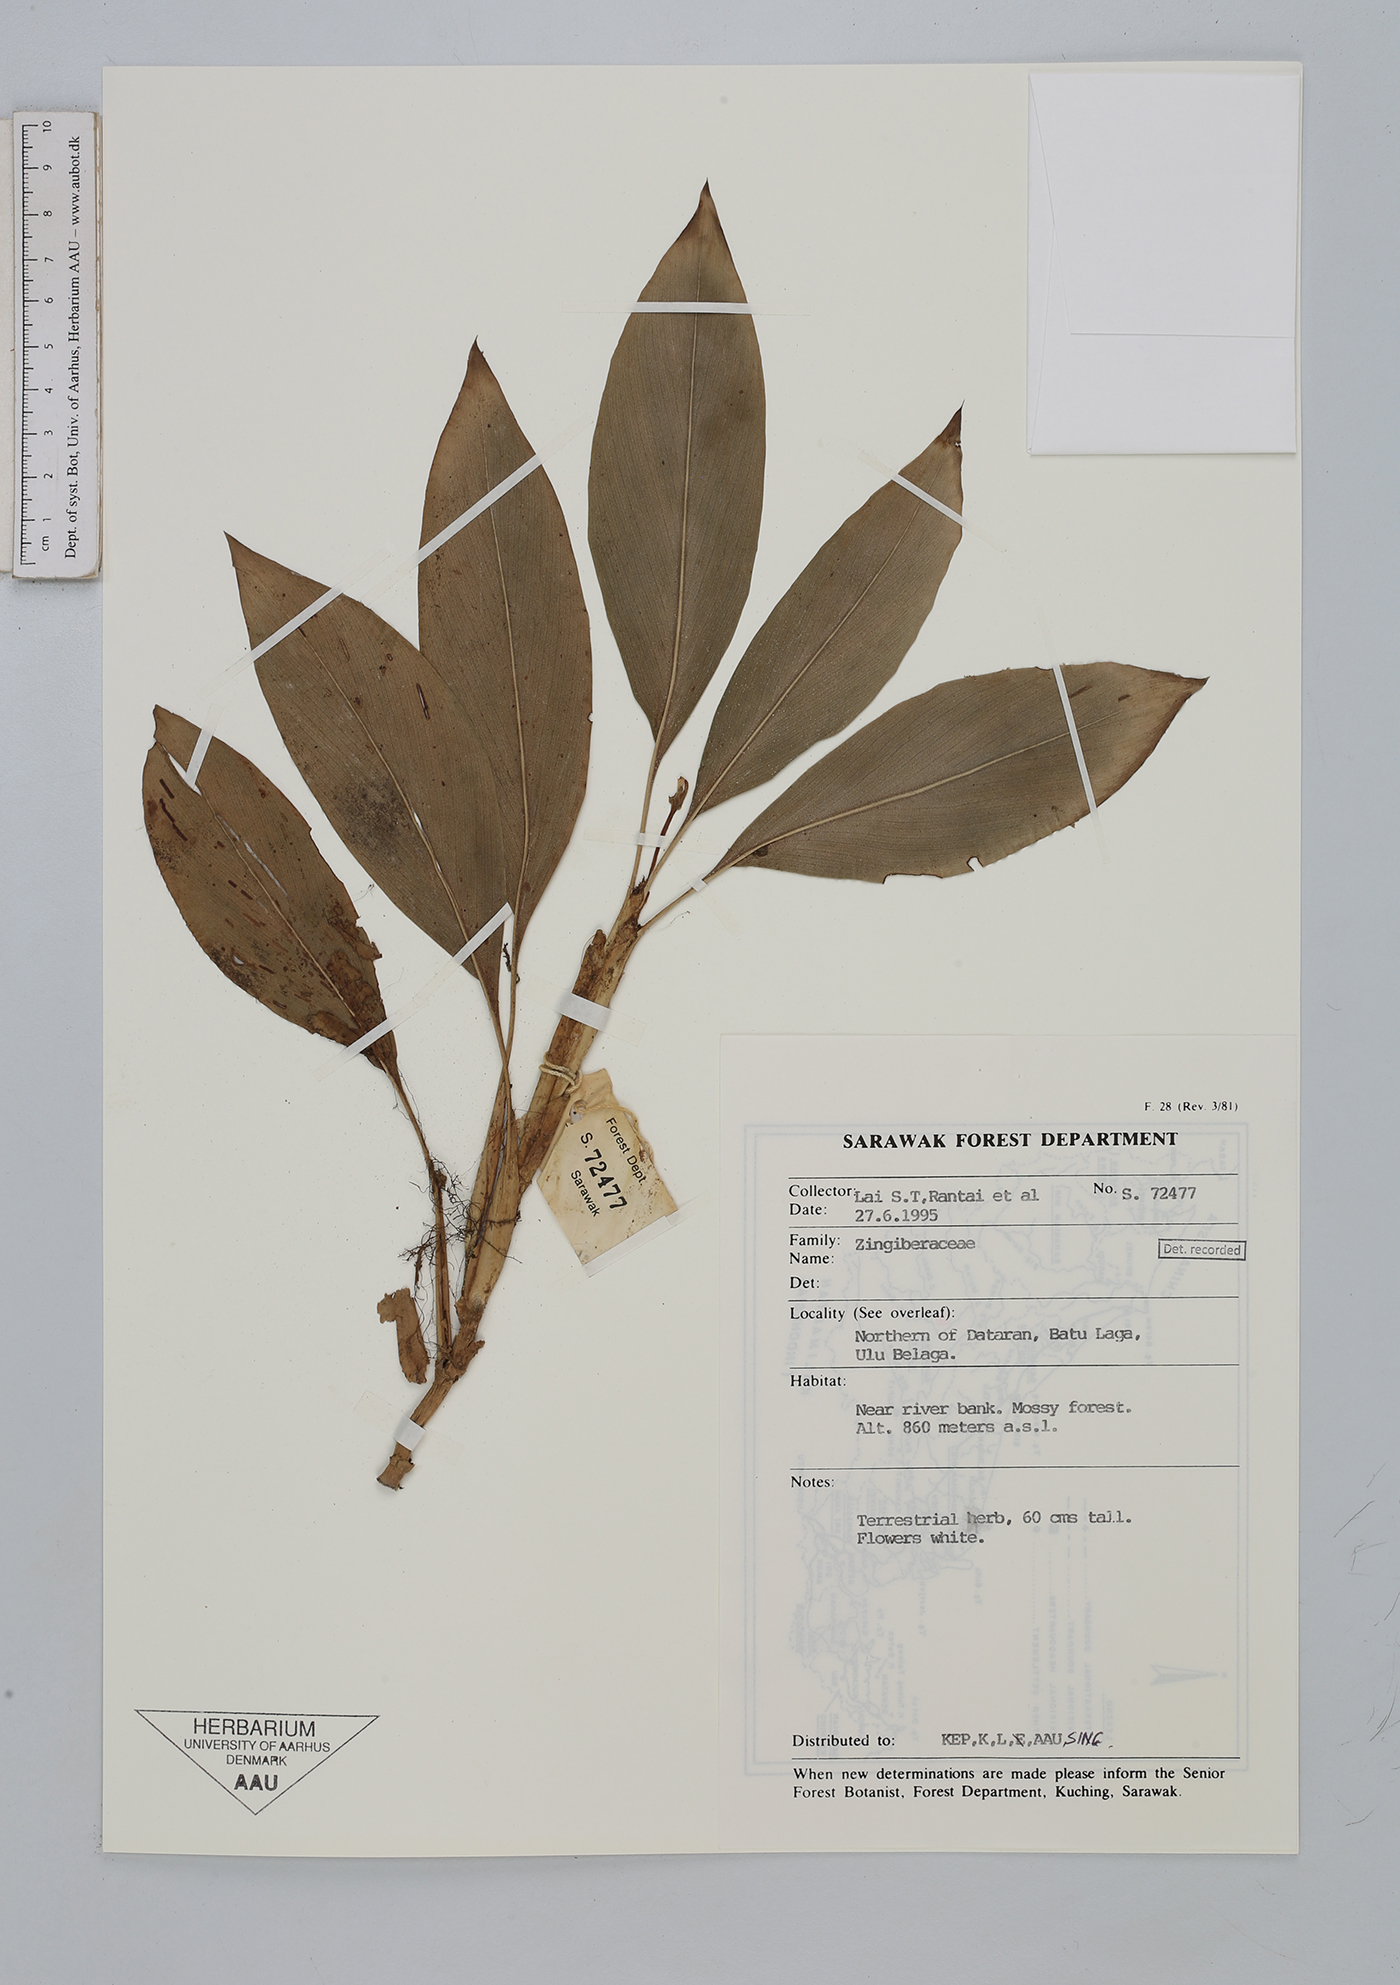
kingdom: Plantae
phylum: Tracheophyta
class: Liliopsida
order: Zingiberales
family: Zingiberaceae
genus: Boesenbergia
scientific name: Boesenbergia
